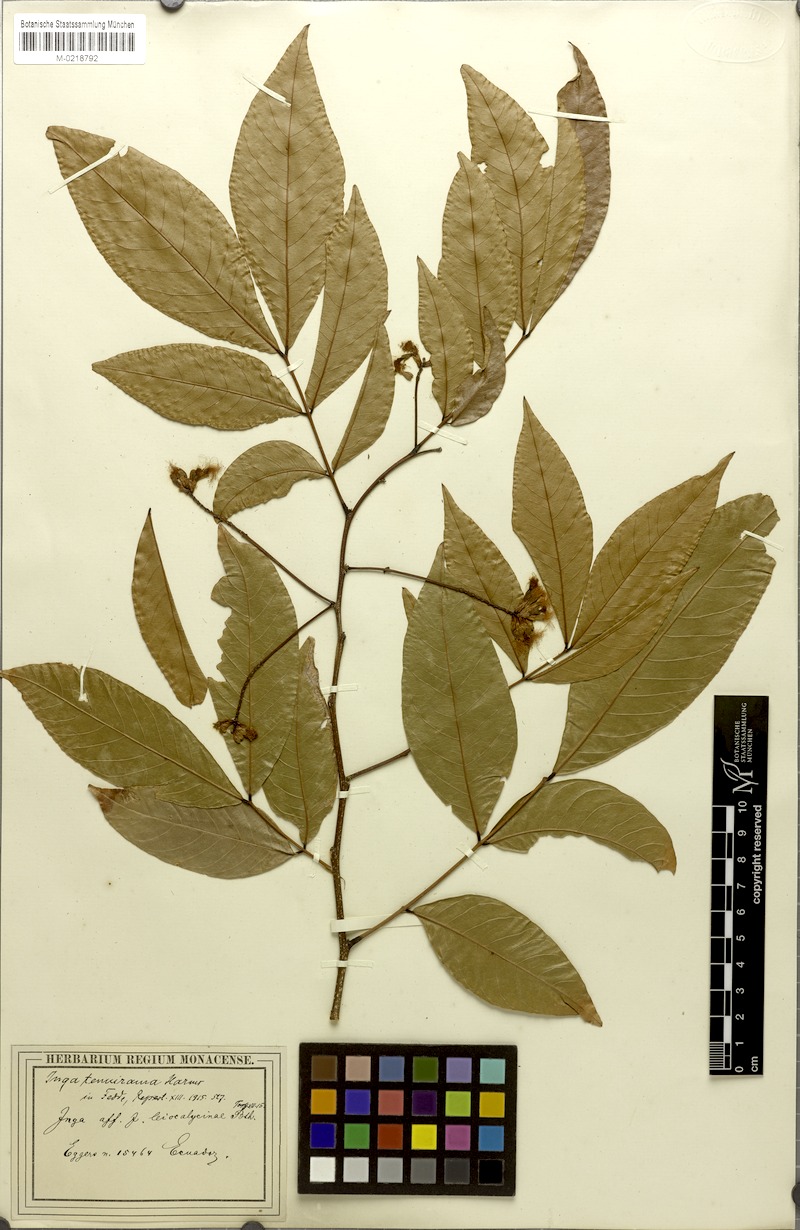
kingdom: Plantae
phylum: Tracheophyta
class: Magnoliopsida
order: Fabales
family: Fabaceae
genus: Inga
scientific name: Inga laevigata
